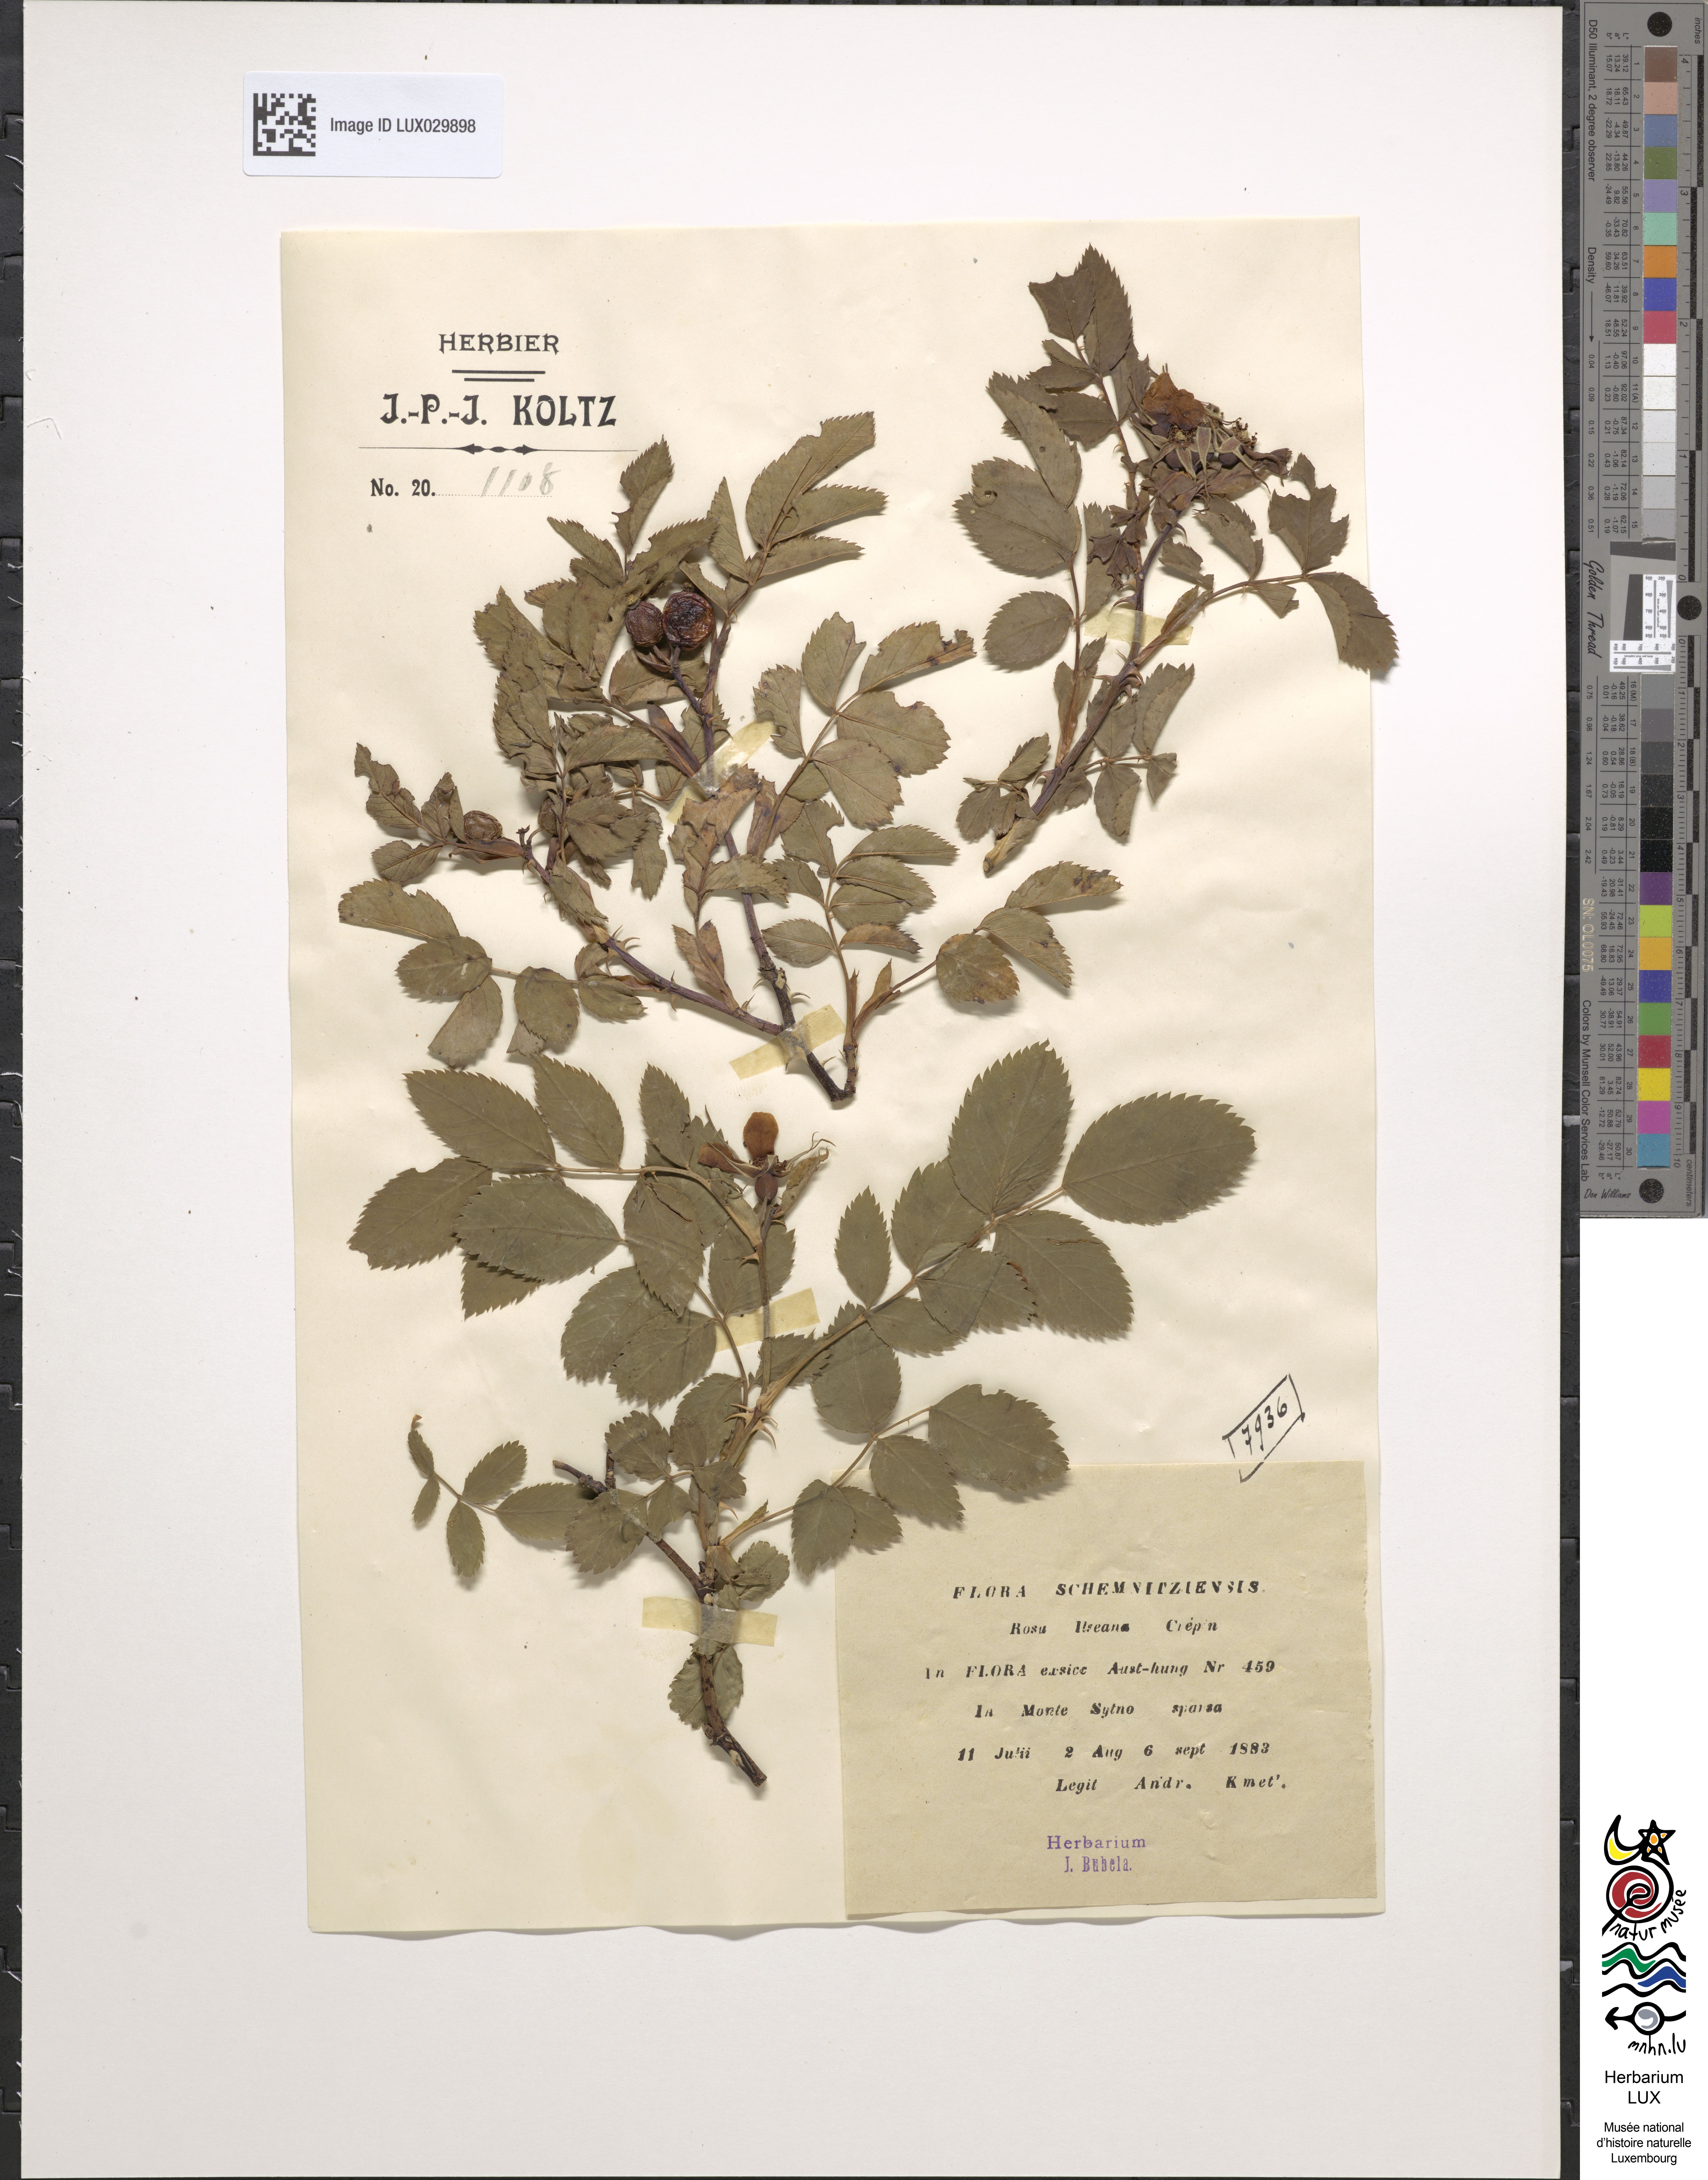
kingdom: Plantae
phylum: Tracheophyta
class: Magnoliopsida
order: Rosales
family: Rosaceae
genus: Rosa
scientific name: Rosa glauca
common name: Redleaf rose
